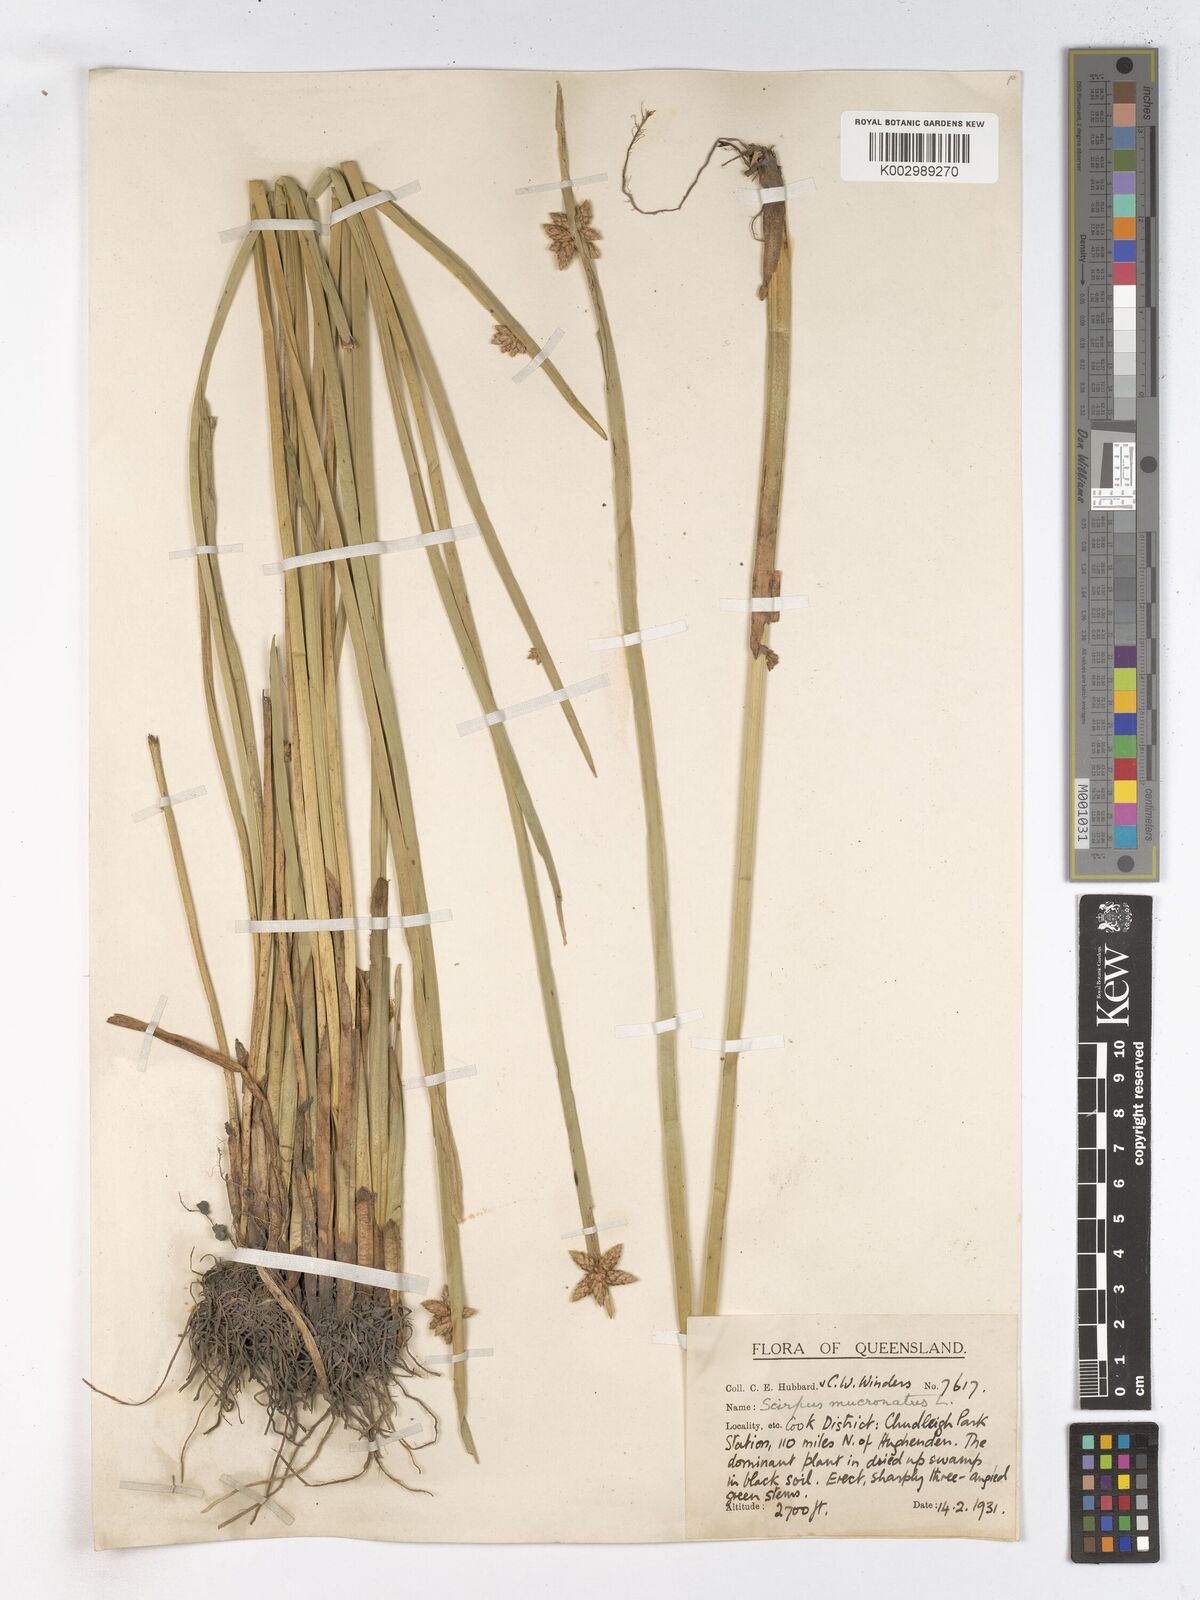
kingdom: Plantae
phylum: Tracheophyta
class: Liliopsida
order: Poales
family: Cyperaceae
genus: Schoenoplectiella
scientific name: Schoenoplectiella mucronata
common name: Bog bulrush
